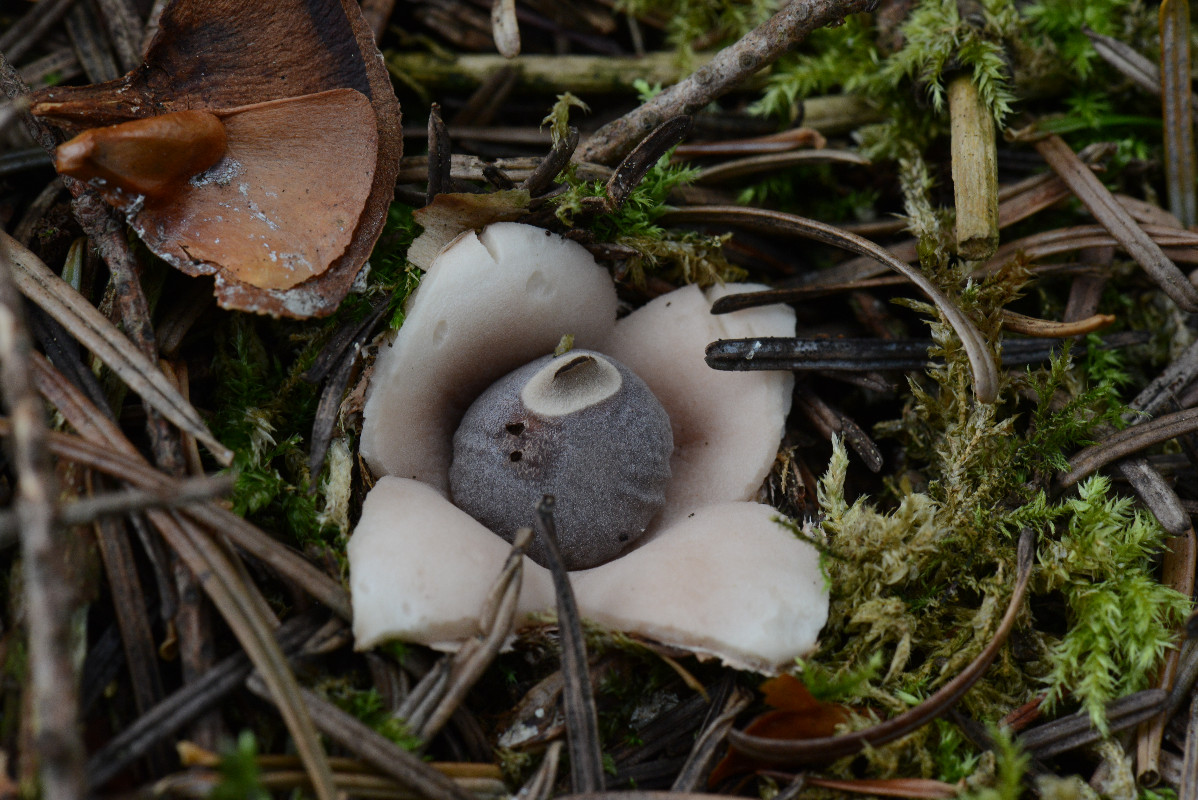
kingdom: Fungi
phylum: Basidiomycota
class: Agaricomycetes
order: Geastrales
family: Geastraceae
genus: Geastrum
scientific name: Geastrum quadrifidum
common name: firfliget stjernebold
